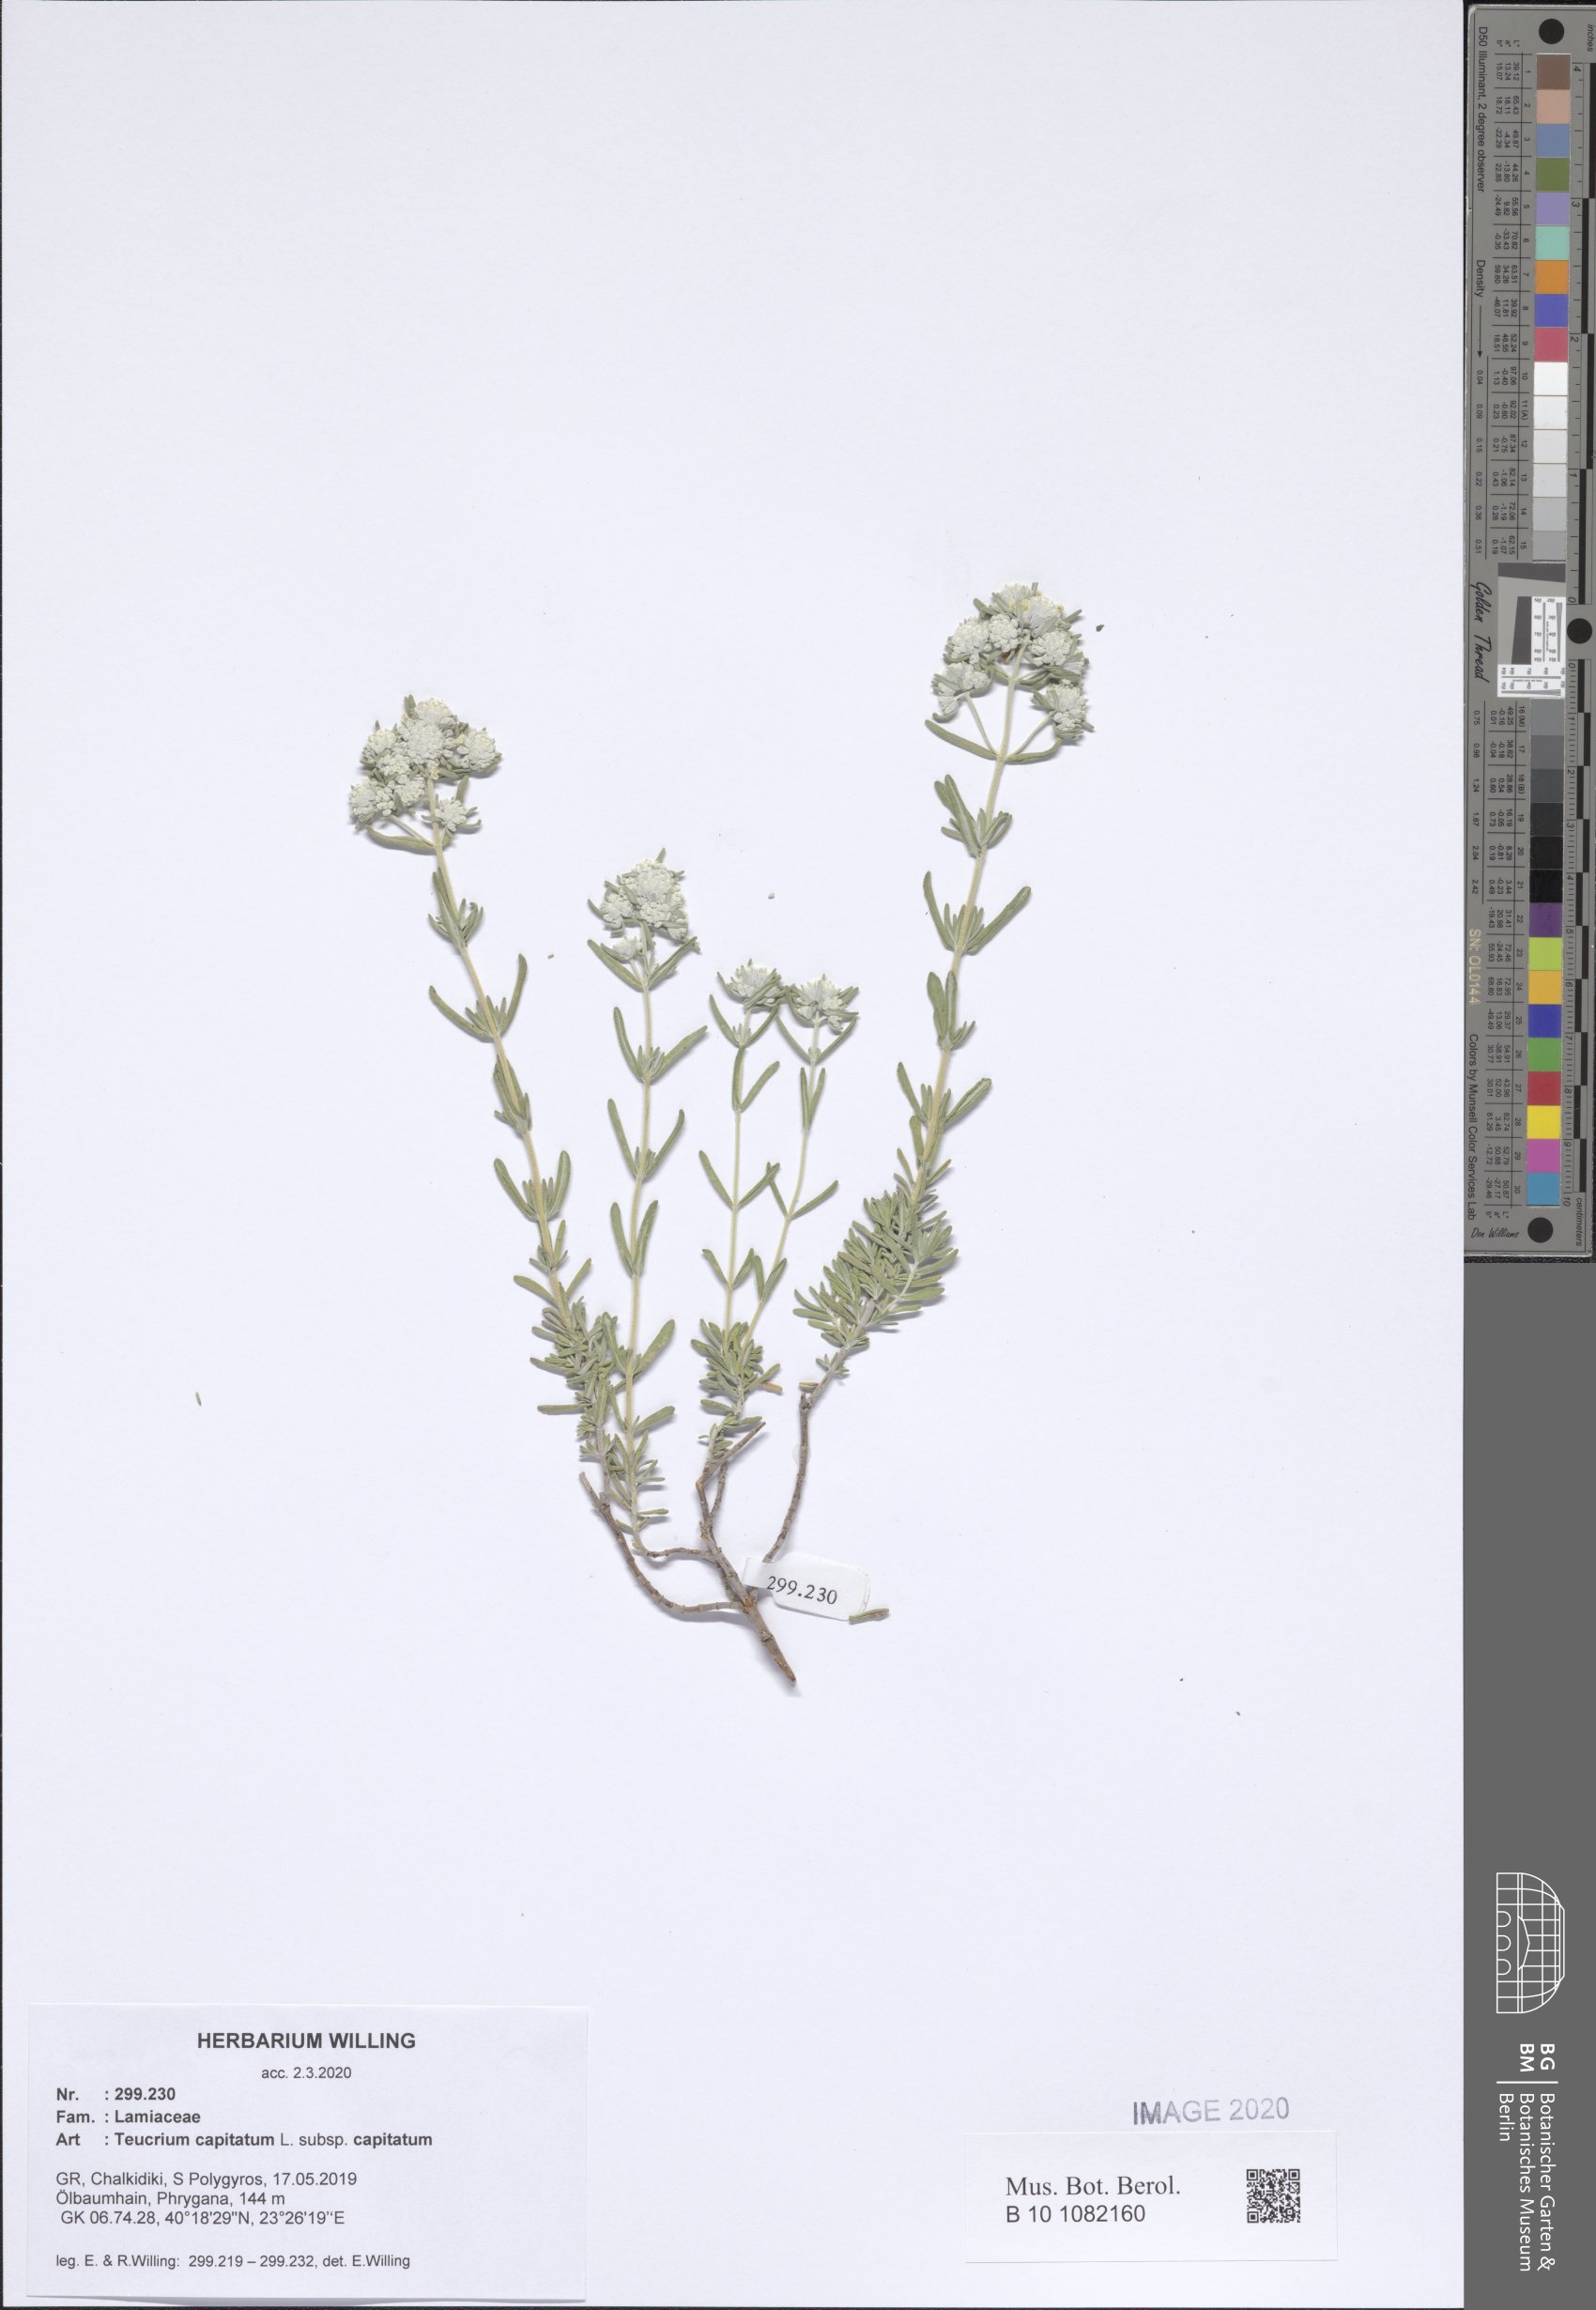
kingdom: Plantae
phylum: Tracheophyta
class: Magnoliopsida
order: Lamiales
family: Lamiaceae
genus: Teucrium
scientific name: Teucrium capitatum
